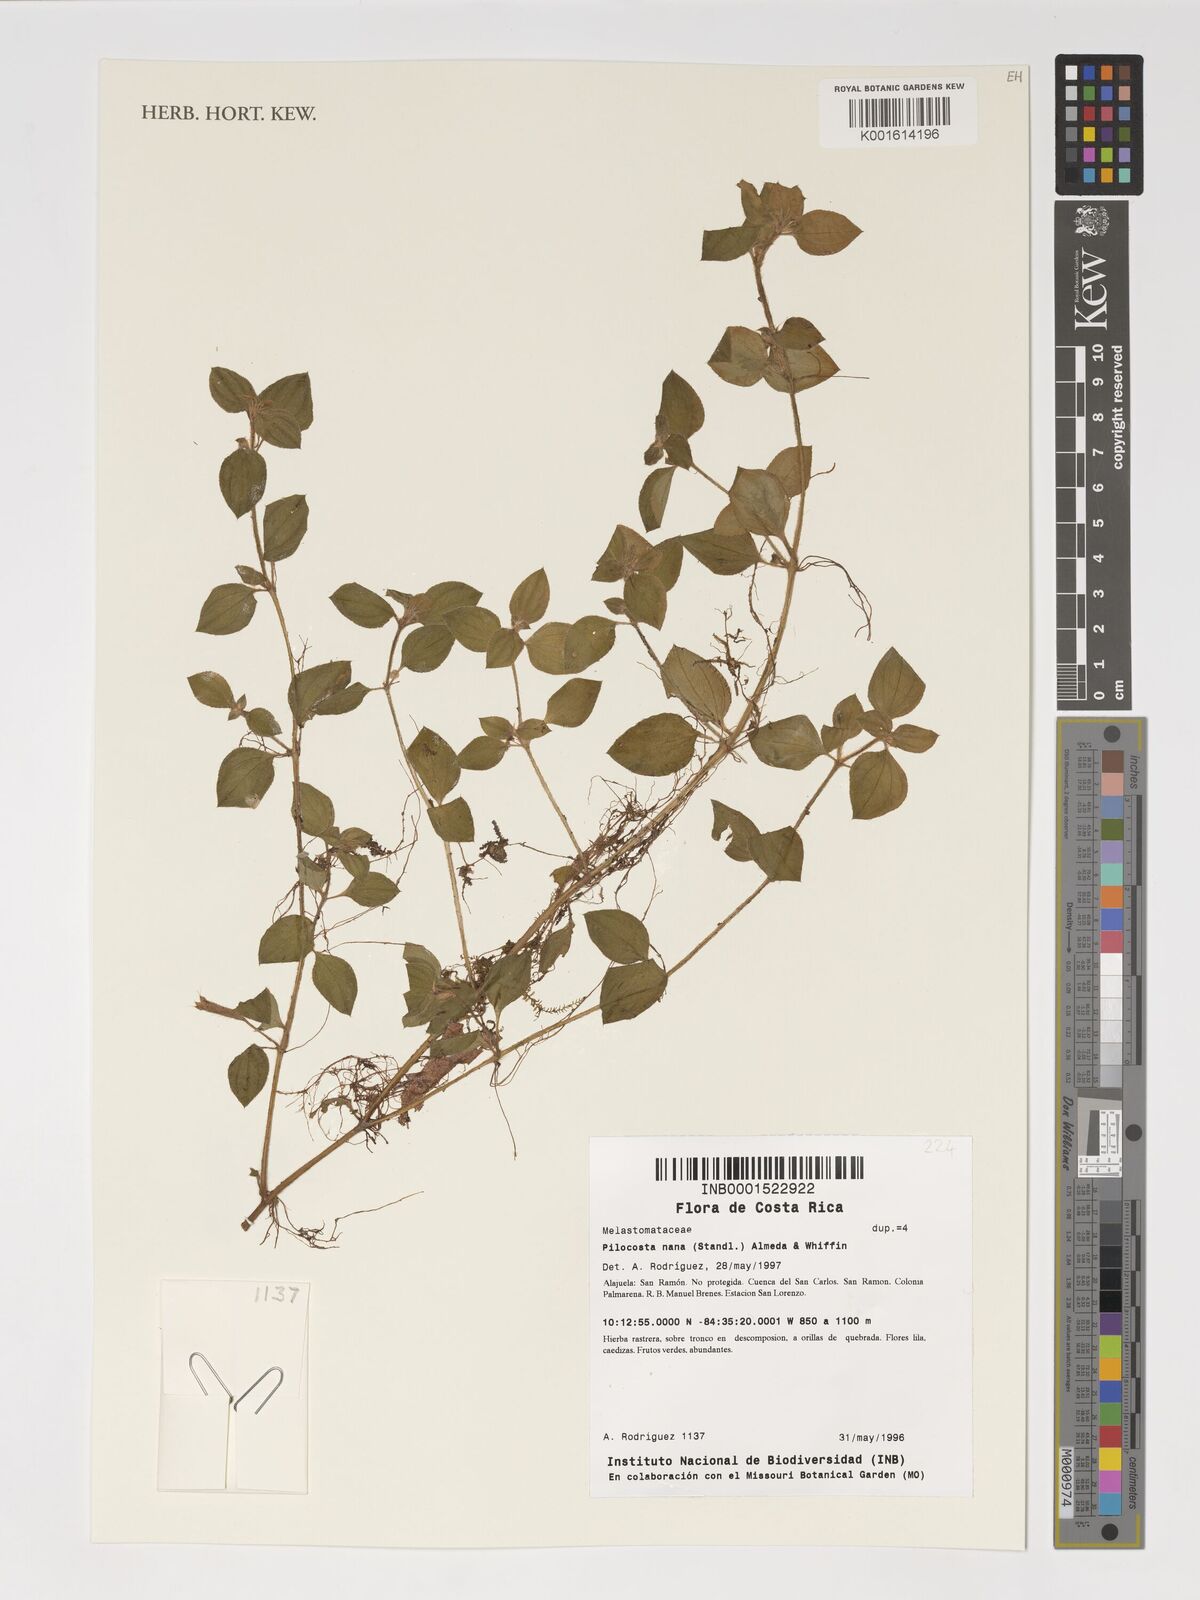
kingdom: Plantae
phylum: Tracheophyta
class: Magnoliopsida
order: Myrtales
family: Melastomataceae
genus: Pilocosta
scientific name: Pilocosta nana
